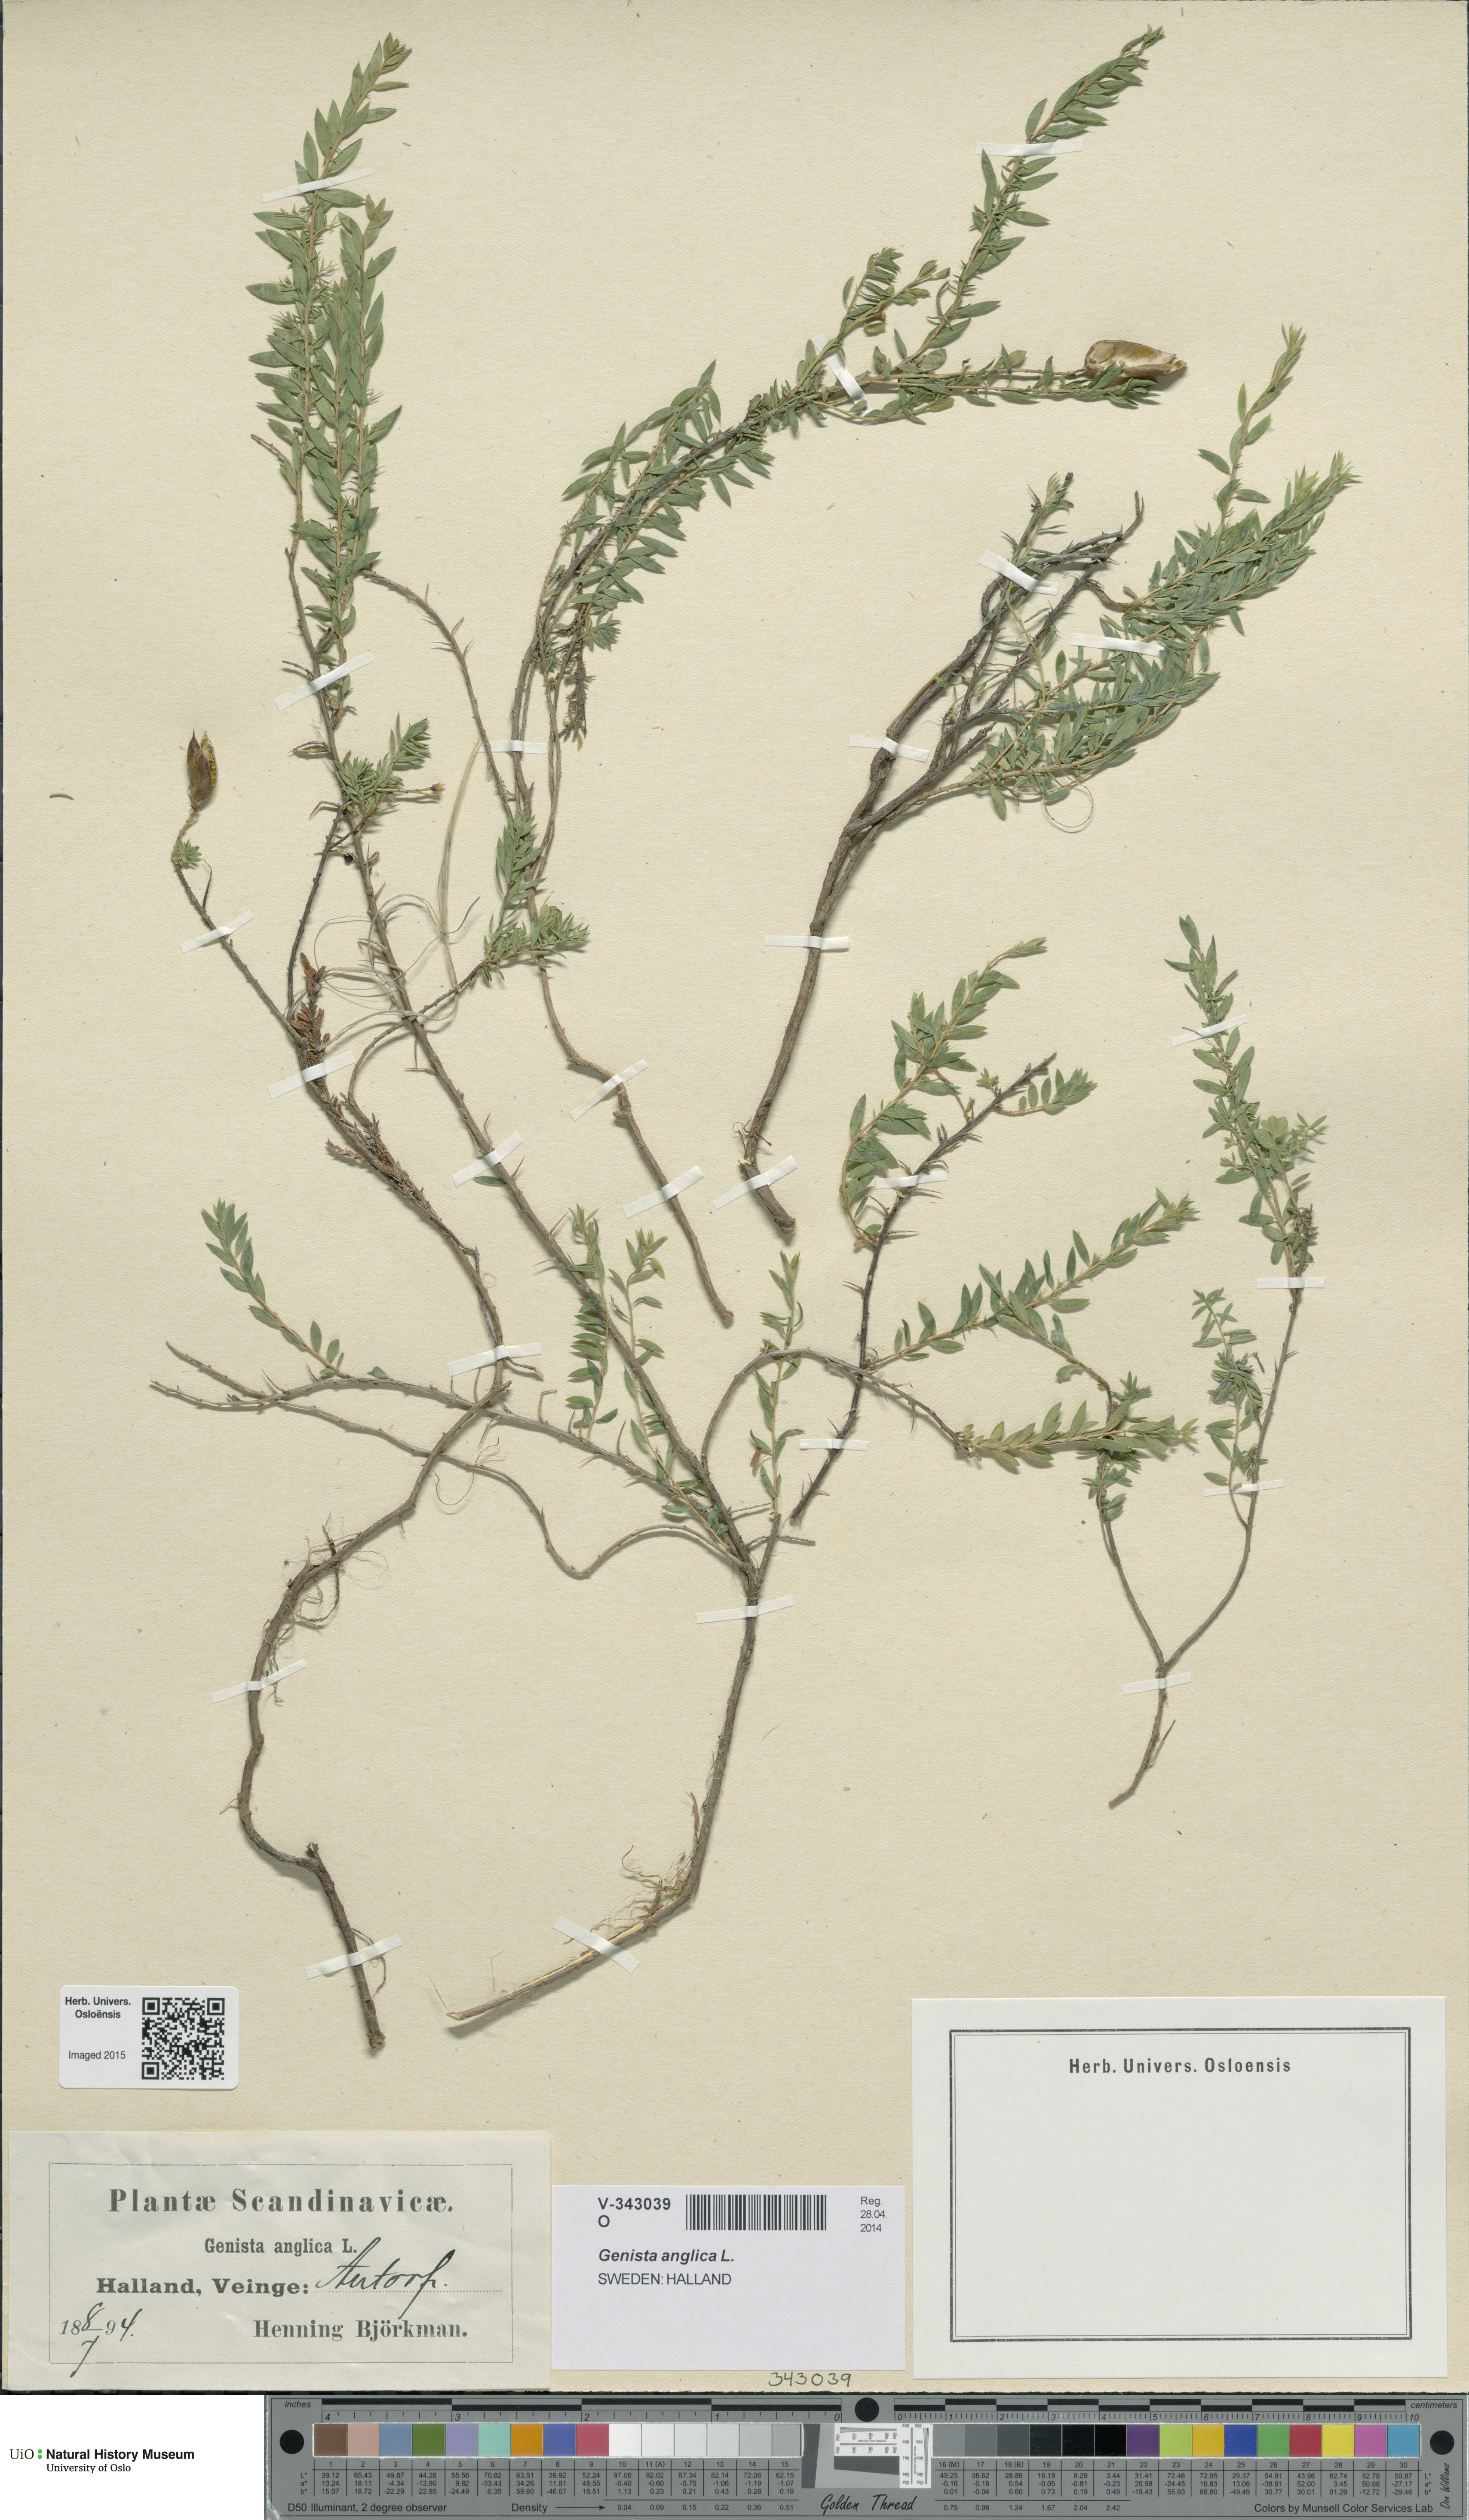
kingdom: Plantae
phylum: Tracheophyta
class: Magnoliopsida
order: Fabales
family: Fabaceae
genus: Genista
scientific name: Genista anglica
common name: Petty whin
